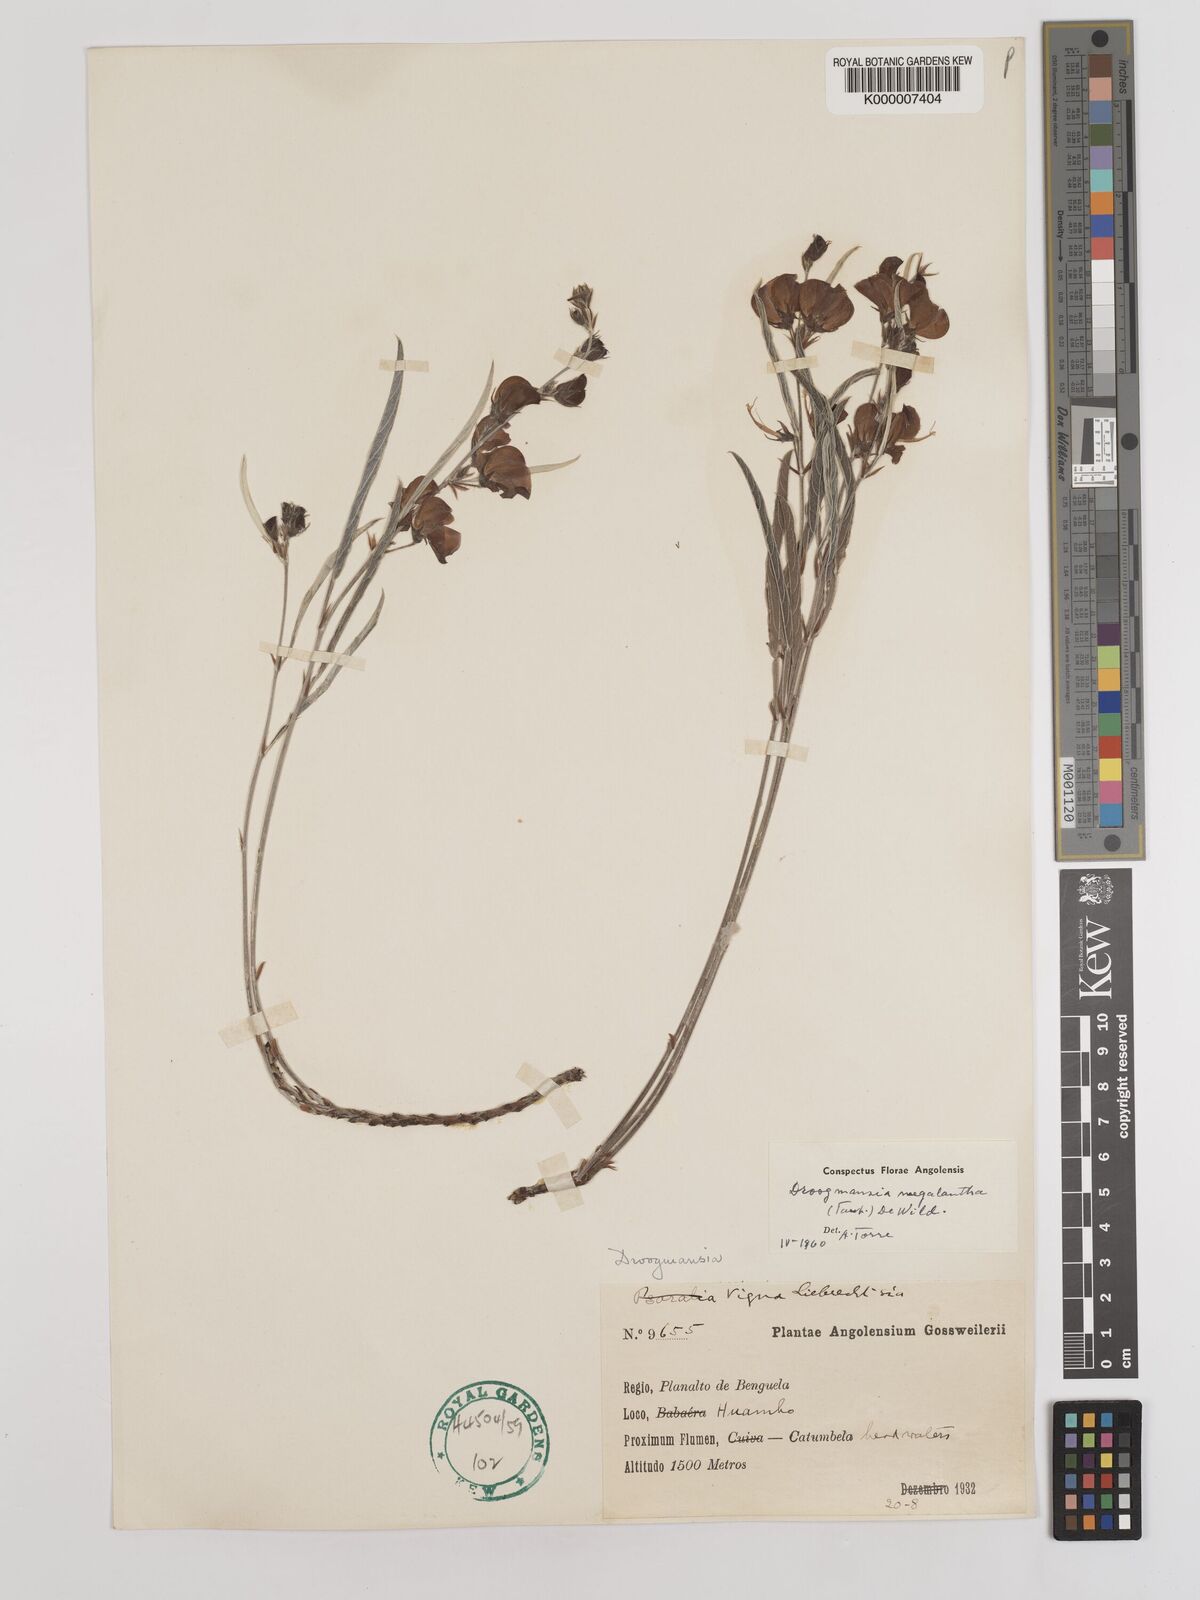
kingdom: Plantae
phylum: Tracheophyta
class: Magnoliopsida
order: Fabales
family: Fabaceae
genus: Droogmansia
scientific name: Droogmansia megalantha
